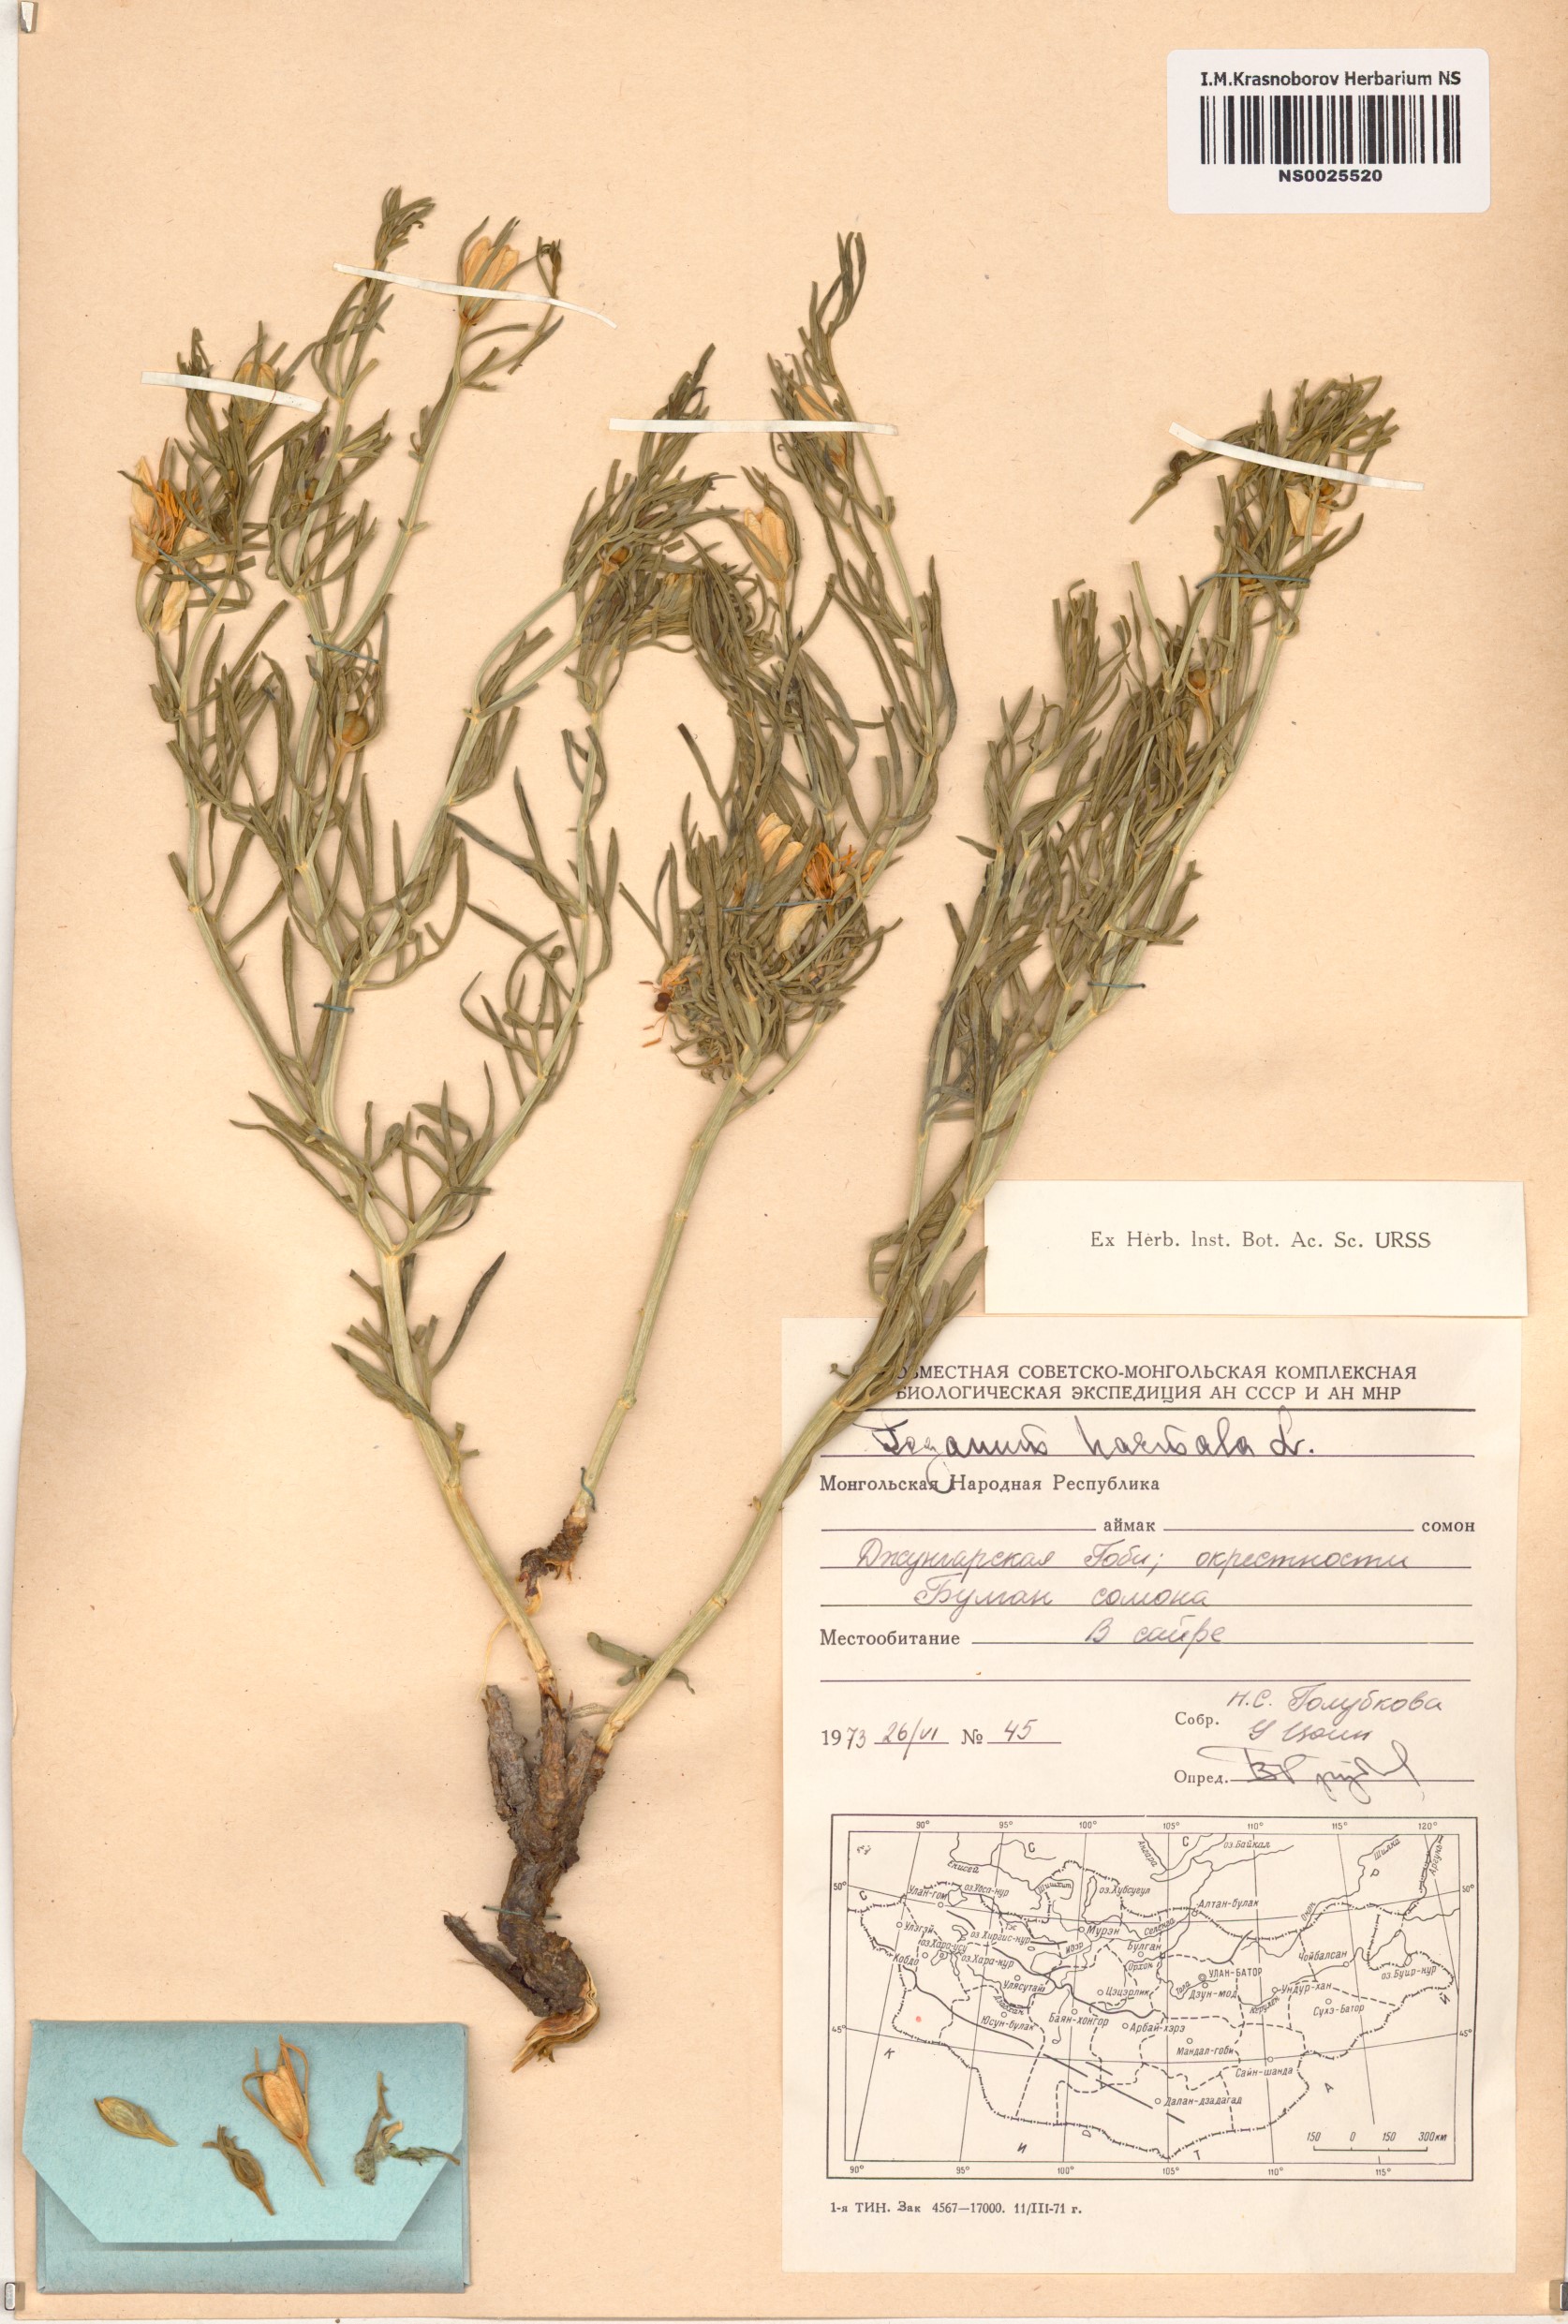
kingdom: Plantae
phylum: Tracheophyta
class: Magnoliopsida
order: Sapindales
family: Tetradiclidaceae
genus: Peganum
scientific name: Peganum harmala
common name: Harmal peganum
